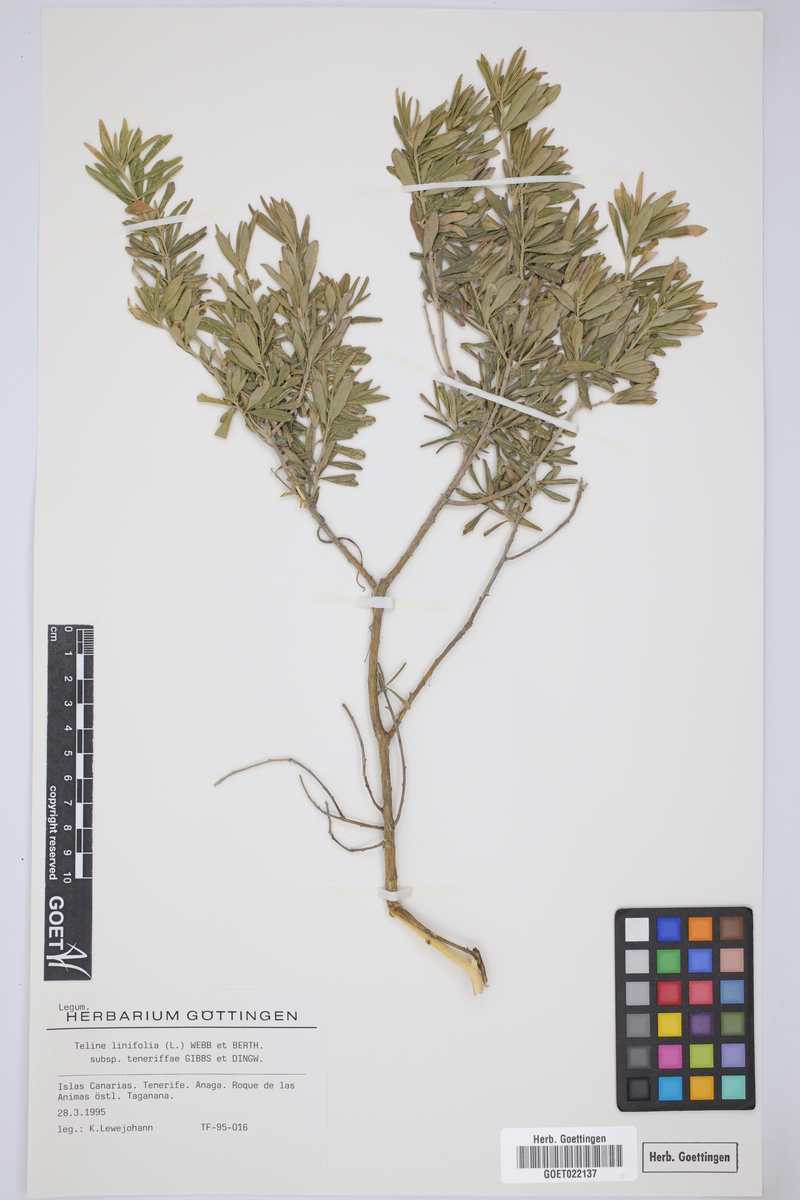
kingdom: Plantae
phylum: Tracheophyta
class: Magnoliopsida
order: Fabales
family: Fabaceae
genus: Genista
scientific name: Genista linifolia
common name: Mediterranean broom
